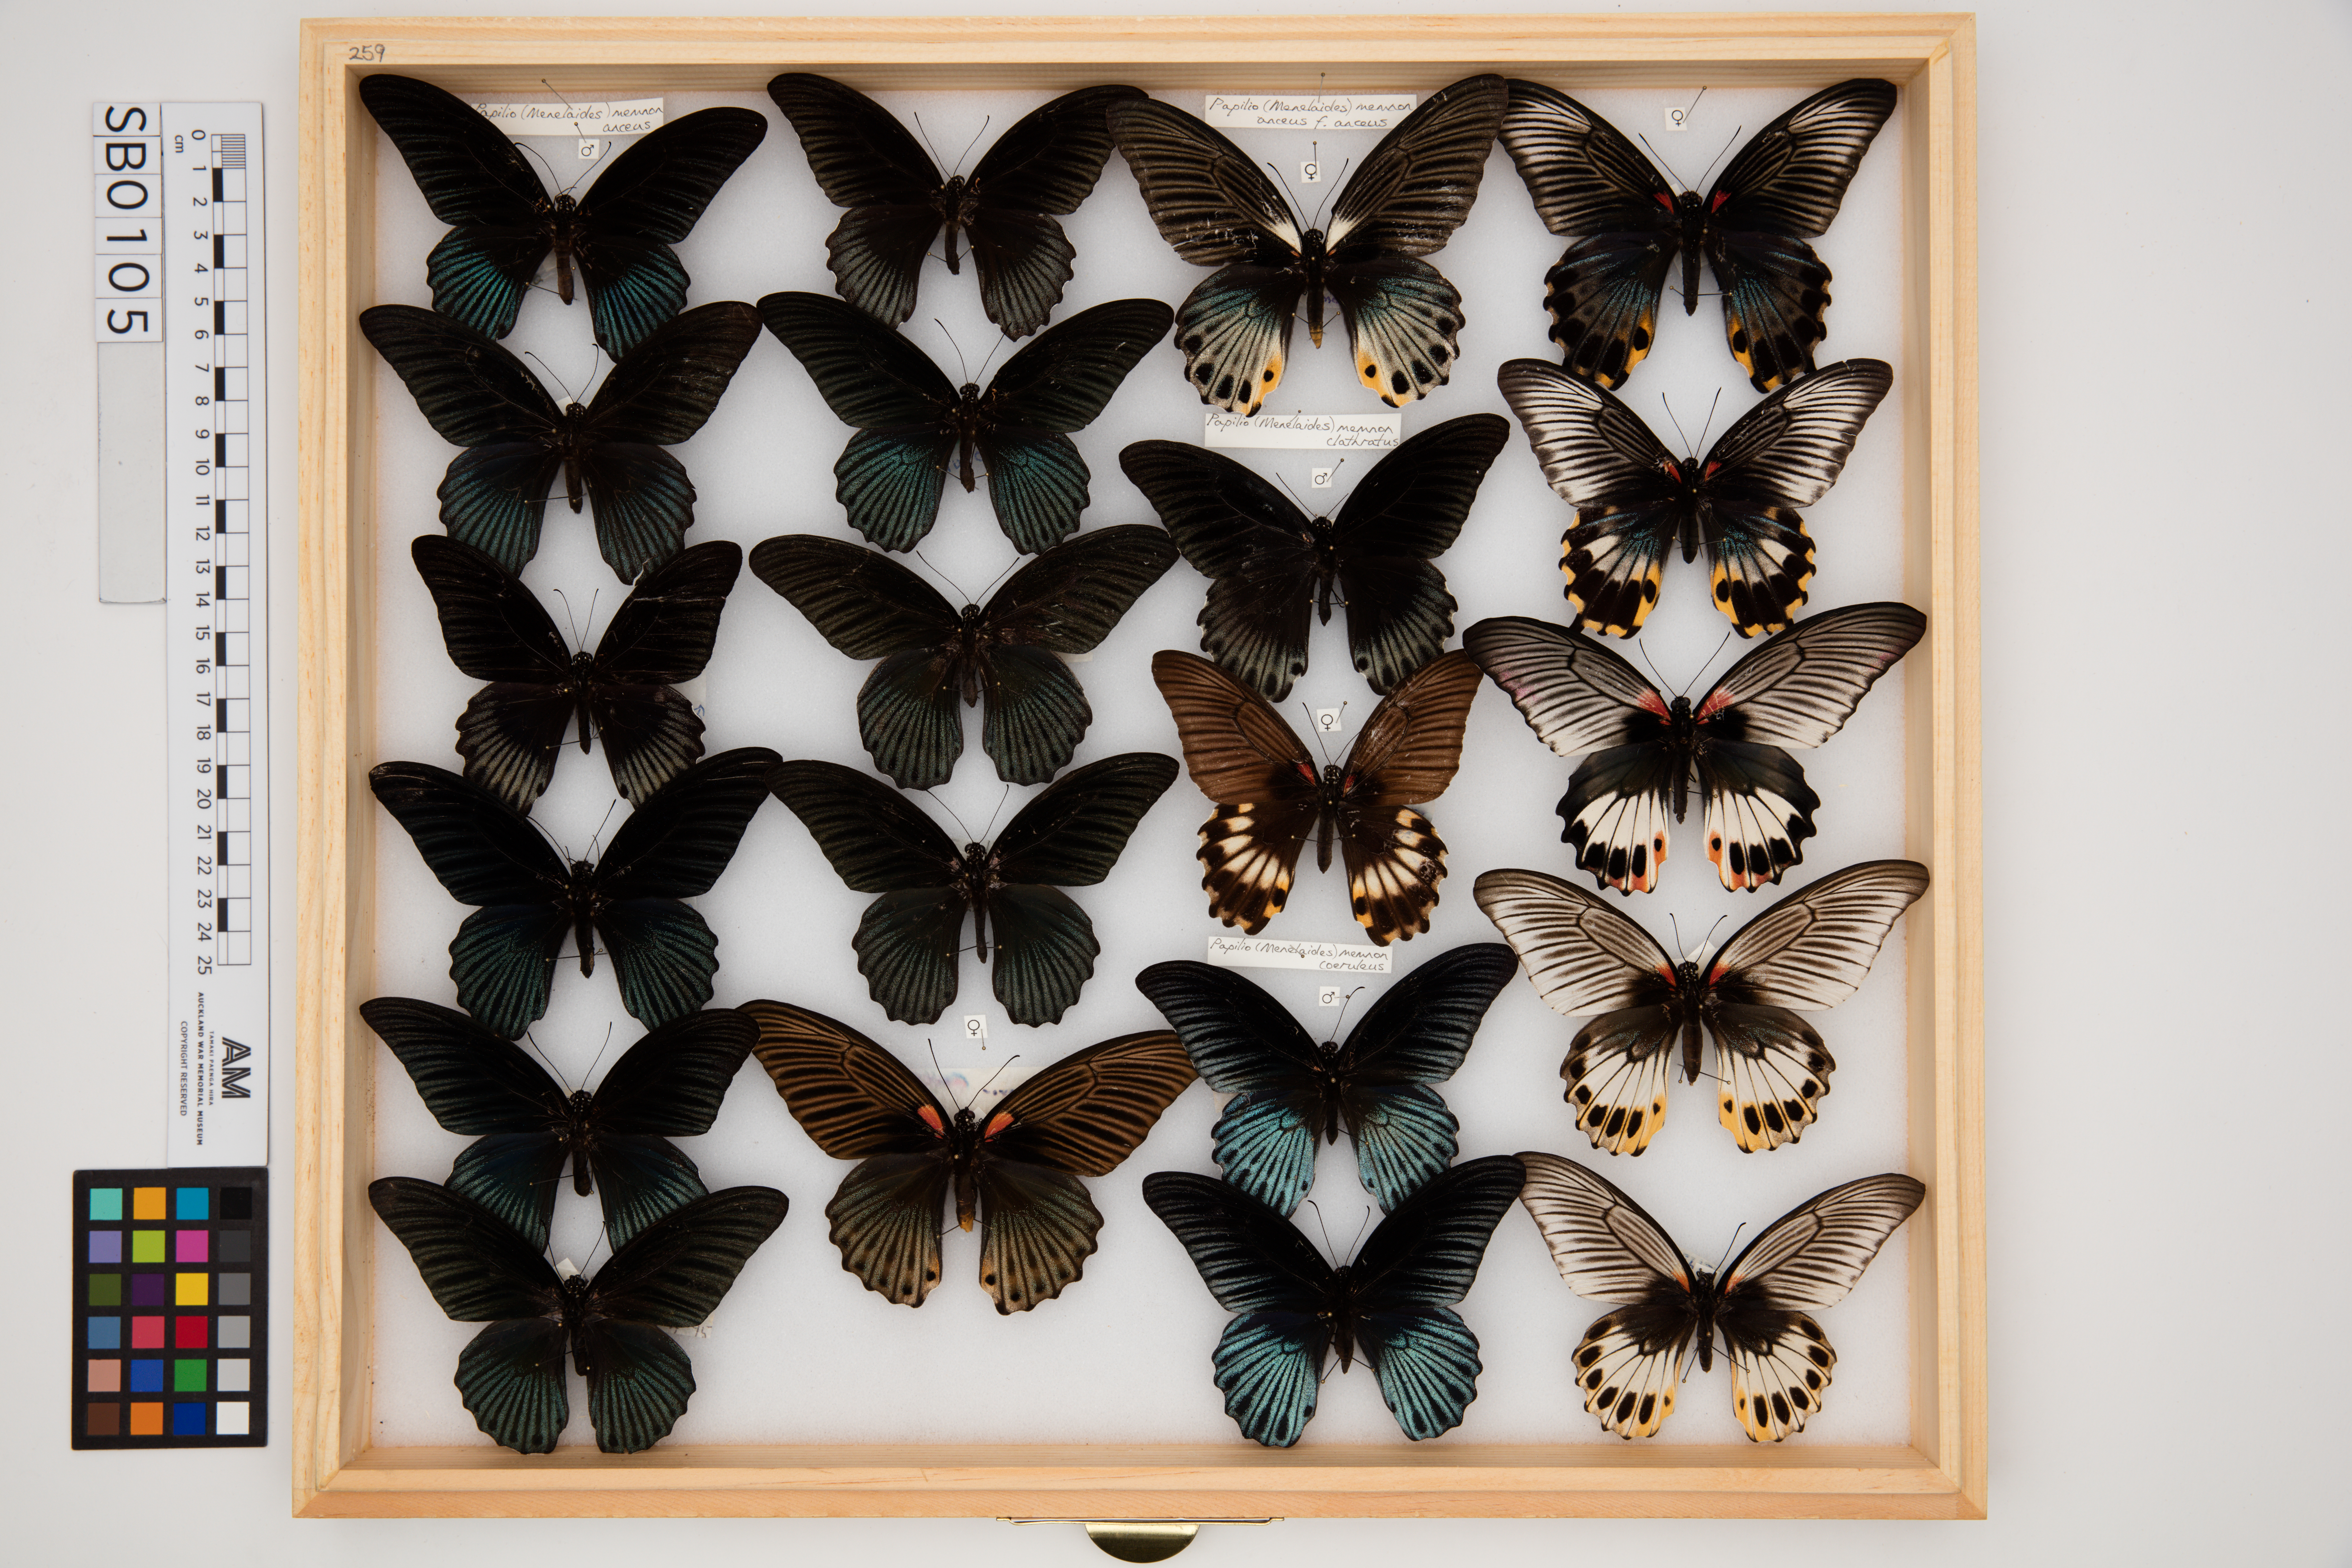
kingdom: Animalia
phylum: Arthropoda
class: Insecta
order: Lepidoptera
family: Papilionidae
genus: Papilio
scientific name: Papilio memnon
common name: Great mormon
